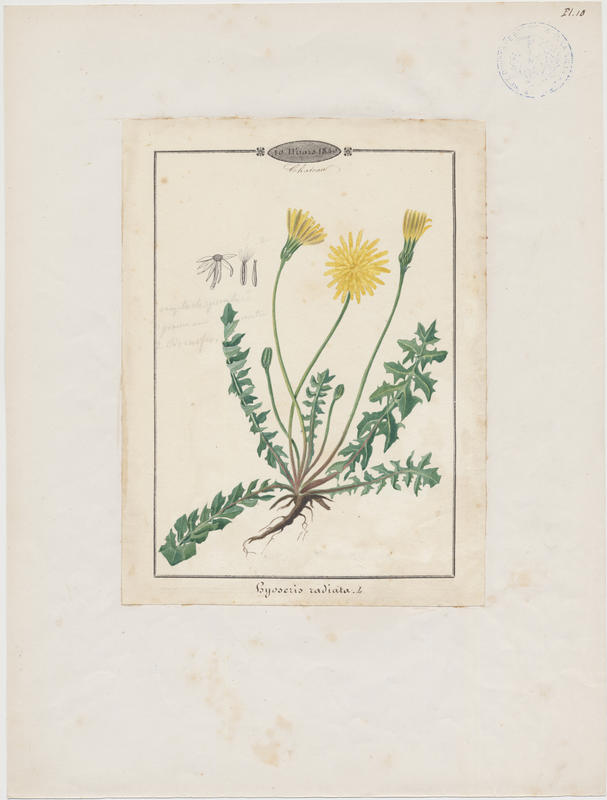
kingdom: Plantae
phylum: Tracheophyta
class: Magnoliopsida
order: Asterales
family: Asteraceae
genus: Hyoseris
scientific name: Hyoseris radiata
